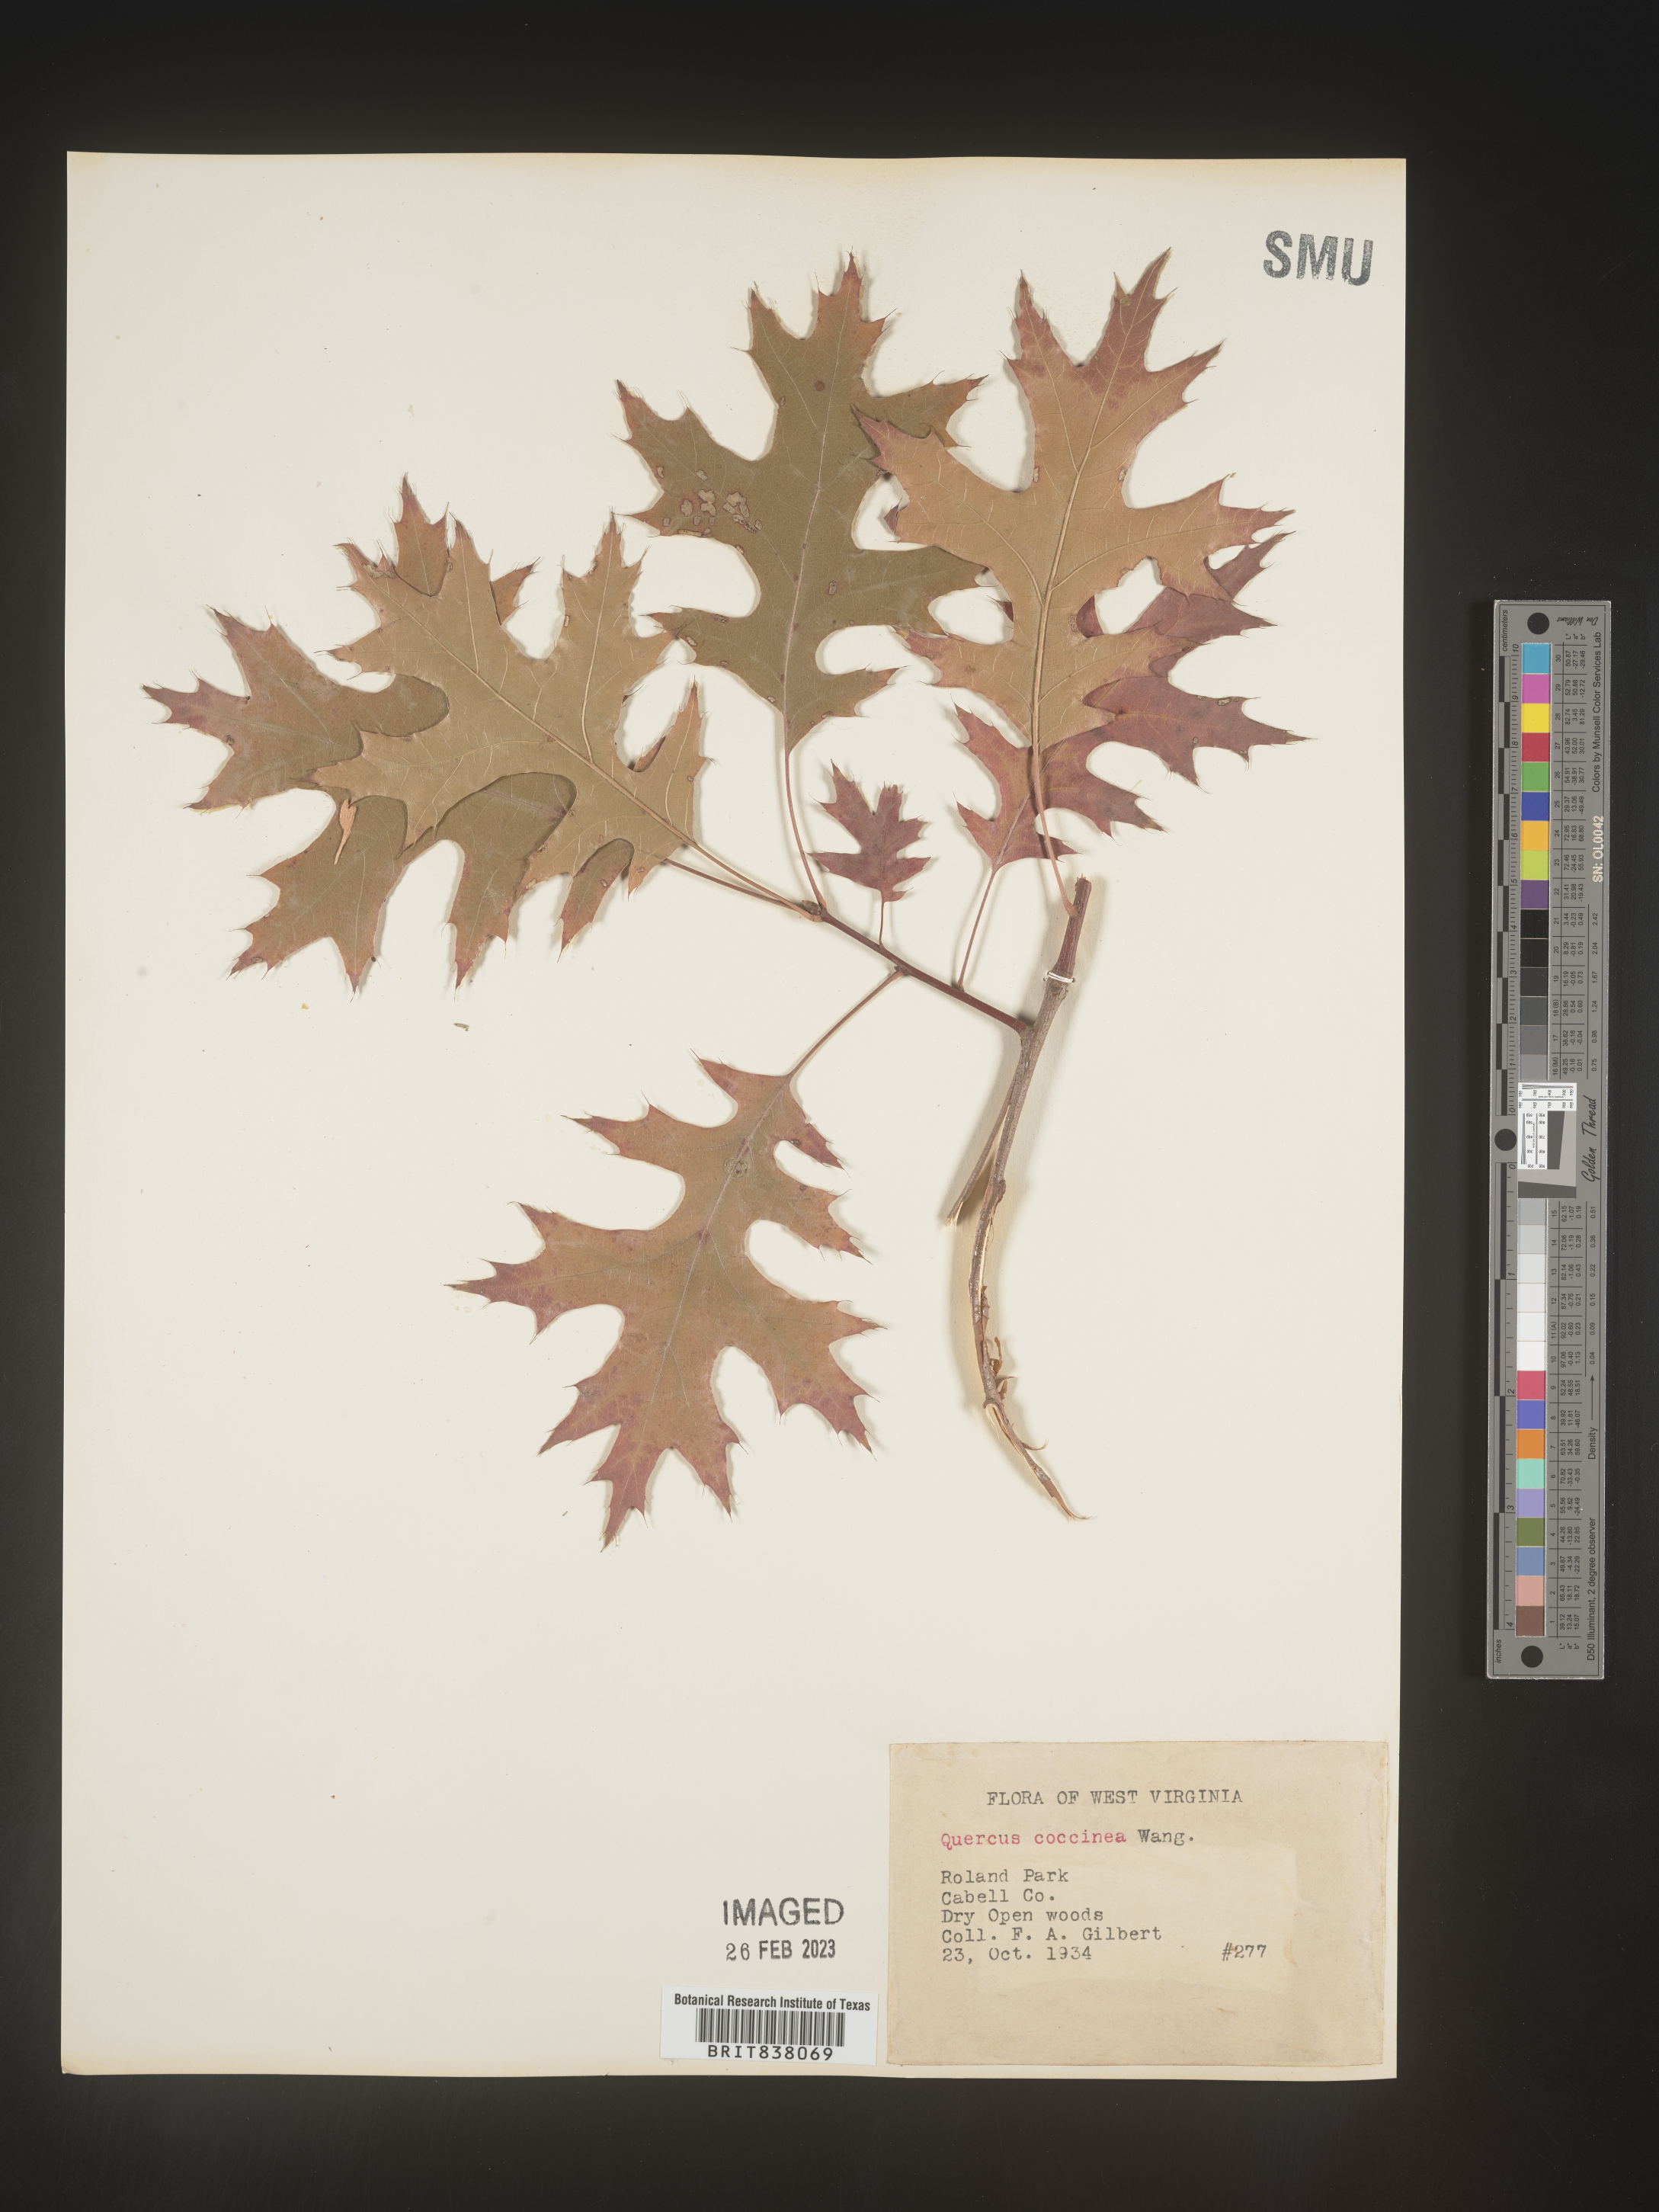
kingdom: Plantae
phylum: Tracheophyta
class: Magnoliopsida
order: Fagales
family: Fagaceae
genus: Quercus
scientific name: Quercus coccinea
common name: Scarlet oak
